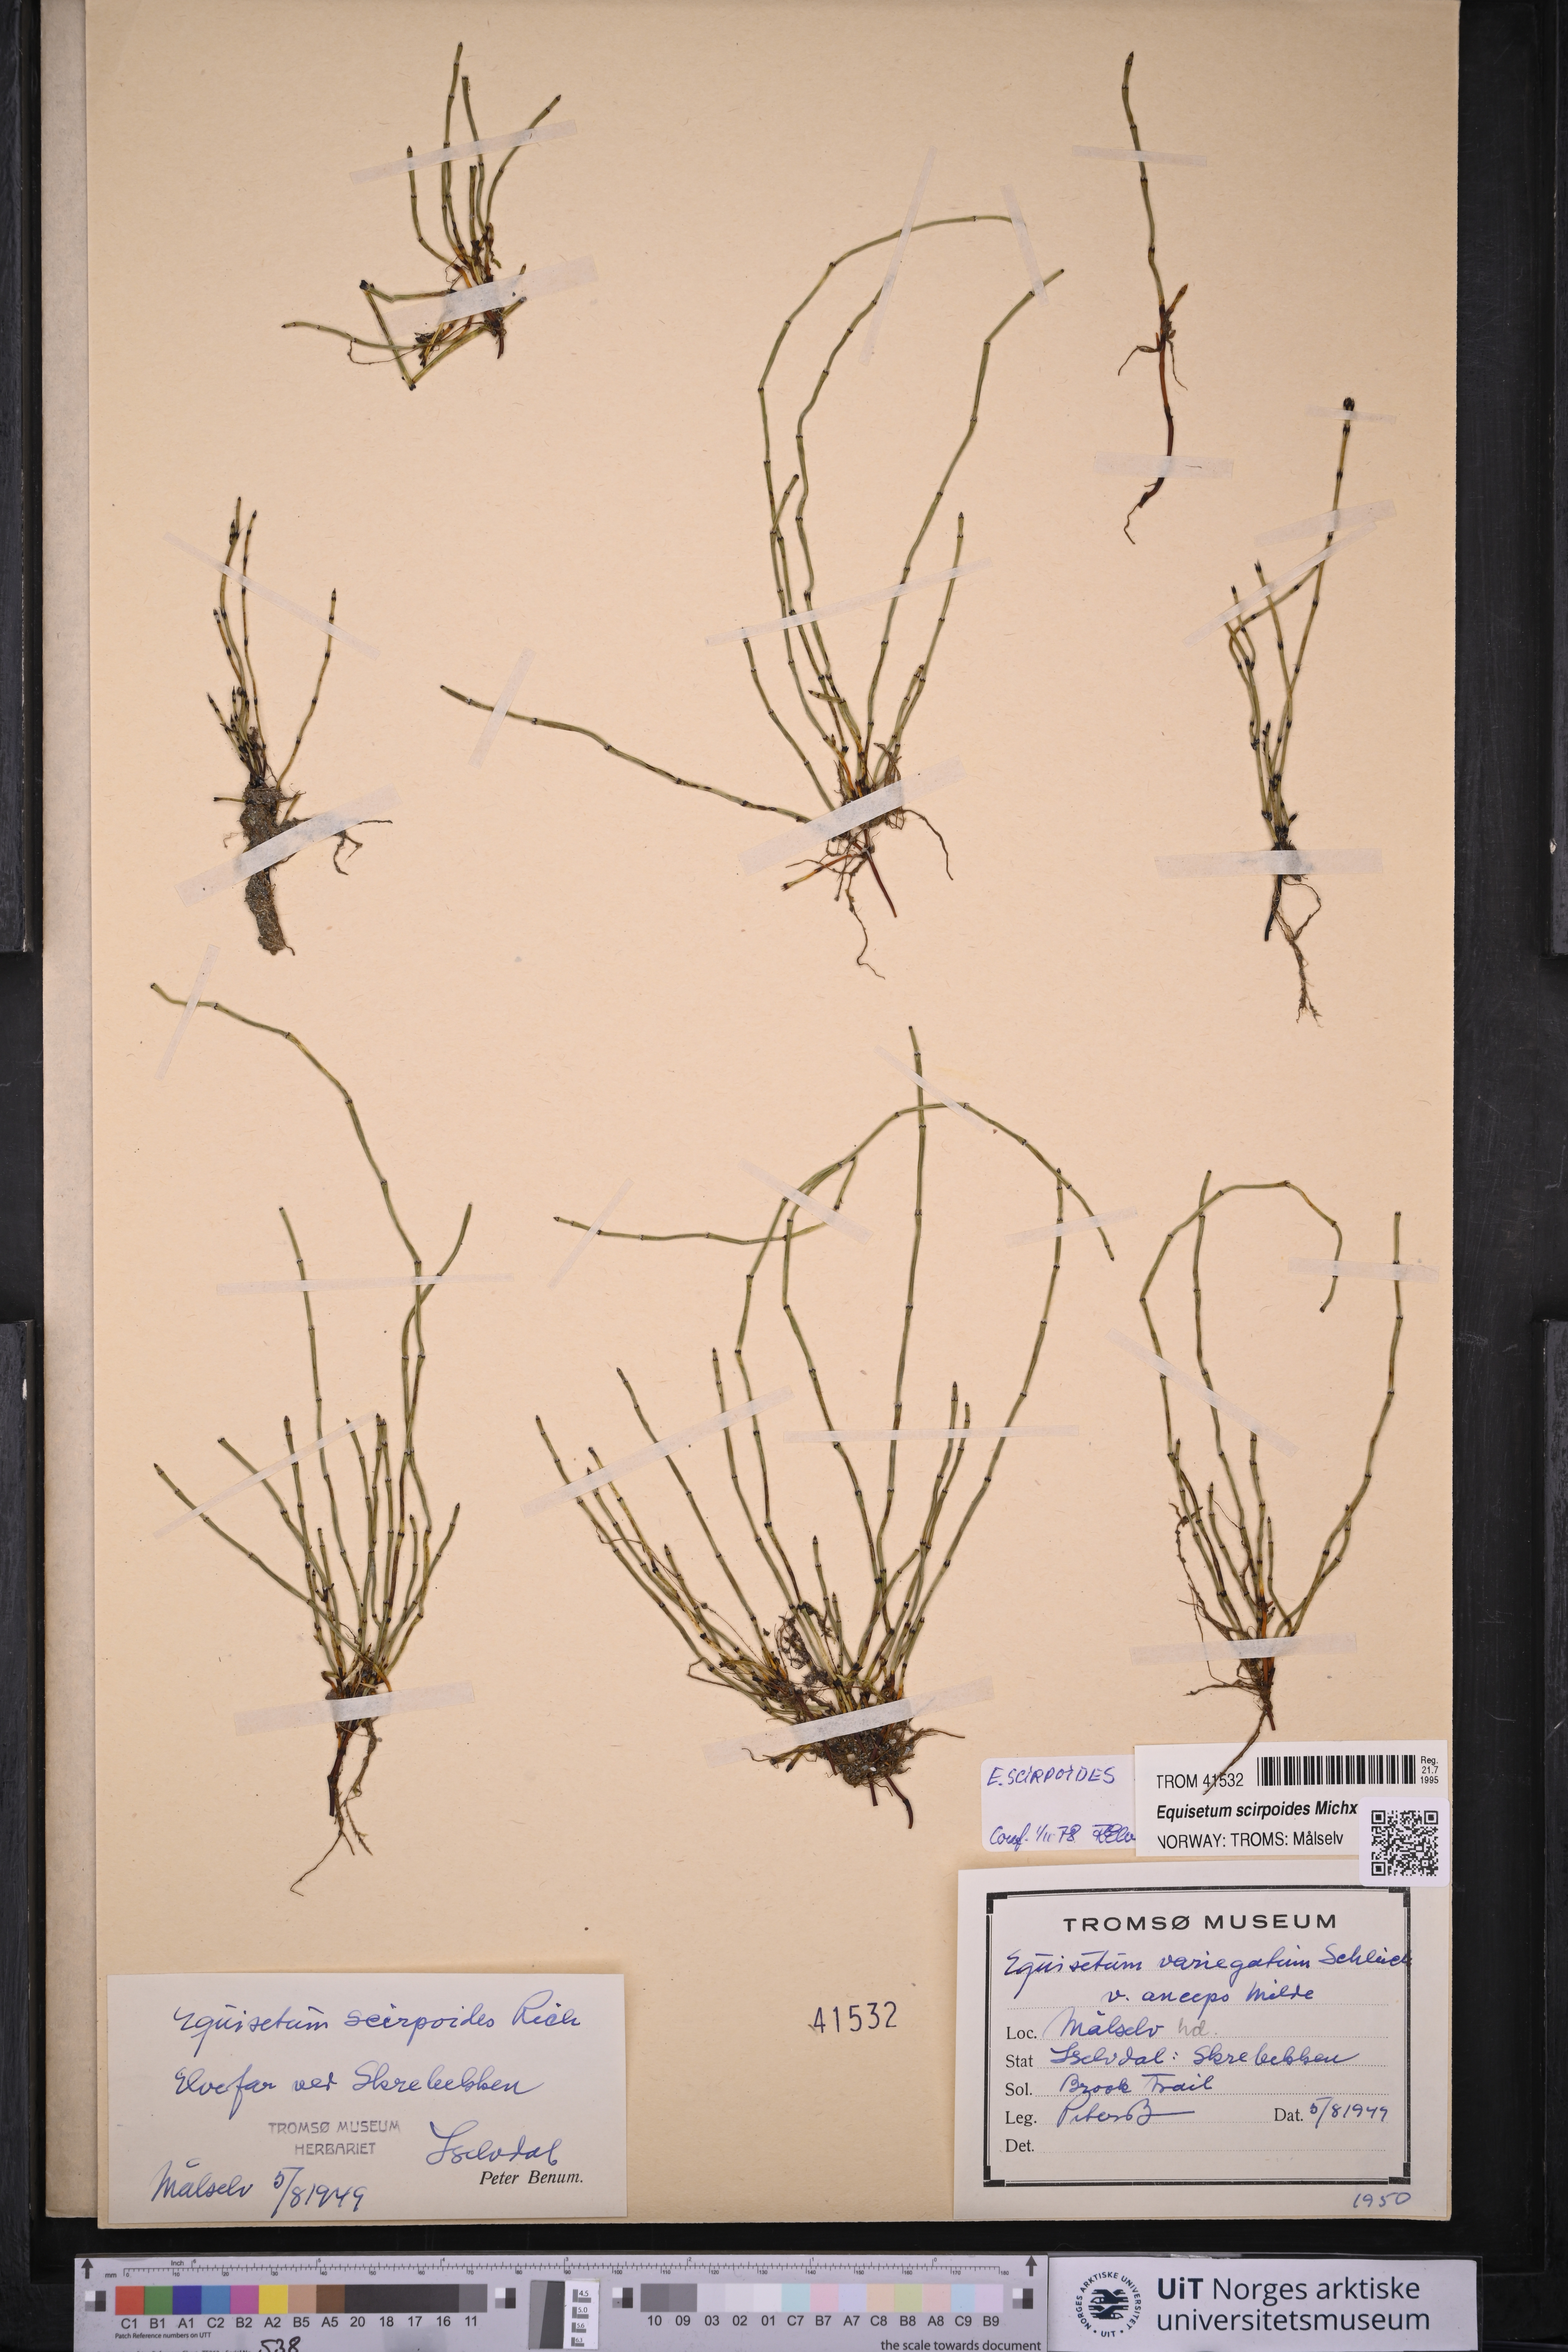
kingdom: Plantae
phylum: Tracheophyta
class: Polypodiopsida
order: Equisetales
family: Equisetaceae
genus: Equisetum
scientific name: Equisetum scirpoides
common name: Delicate horsetail
